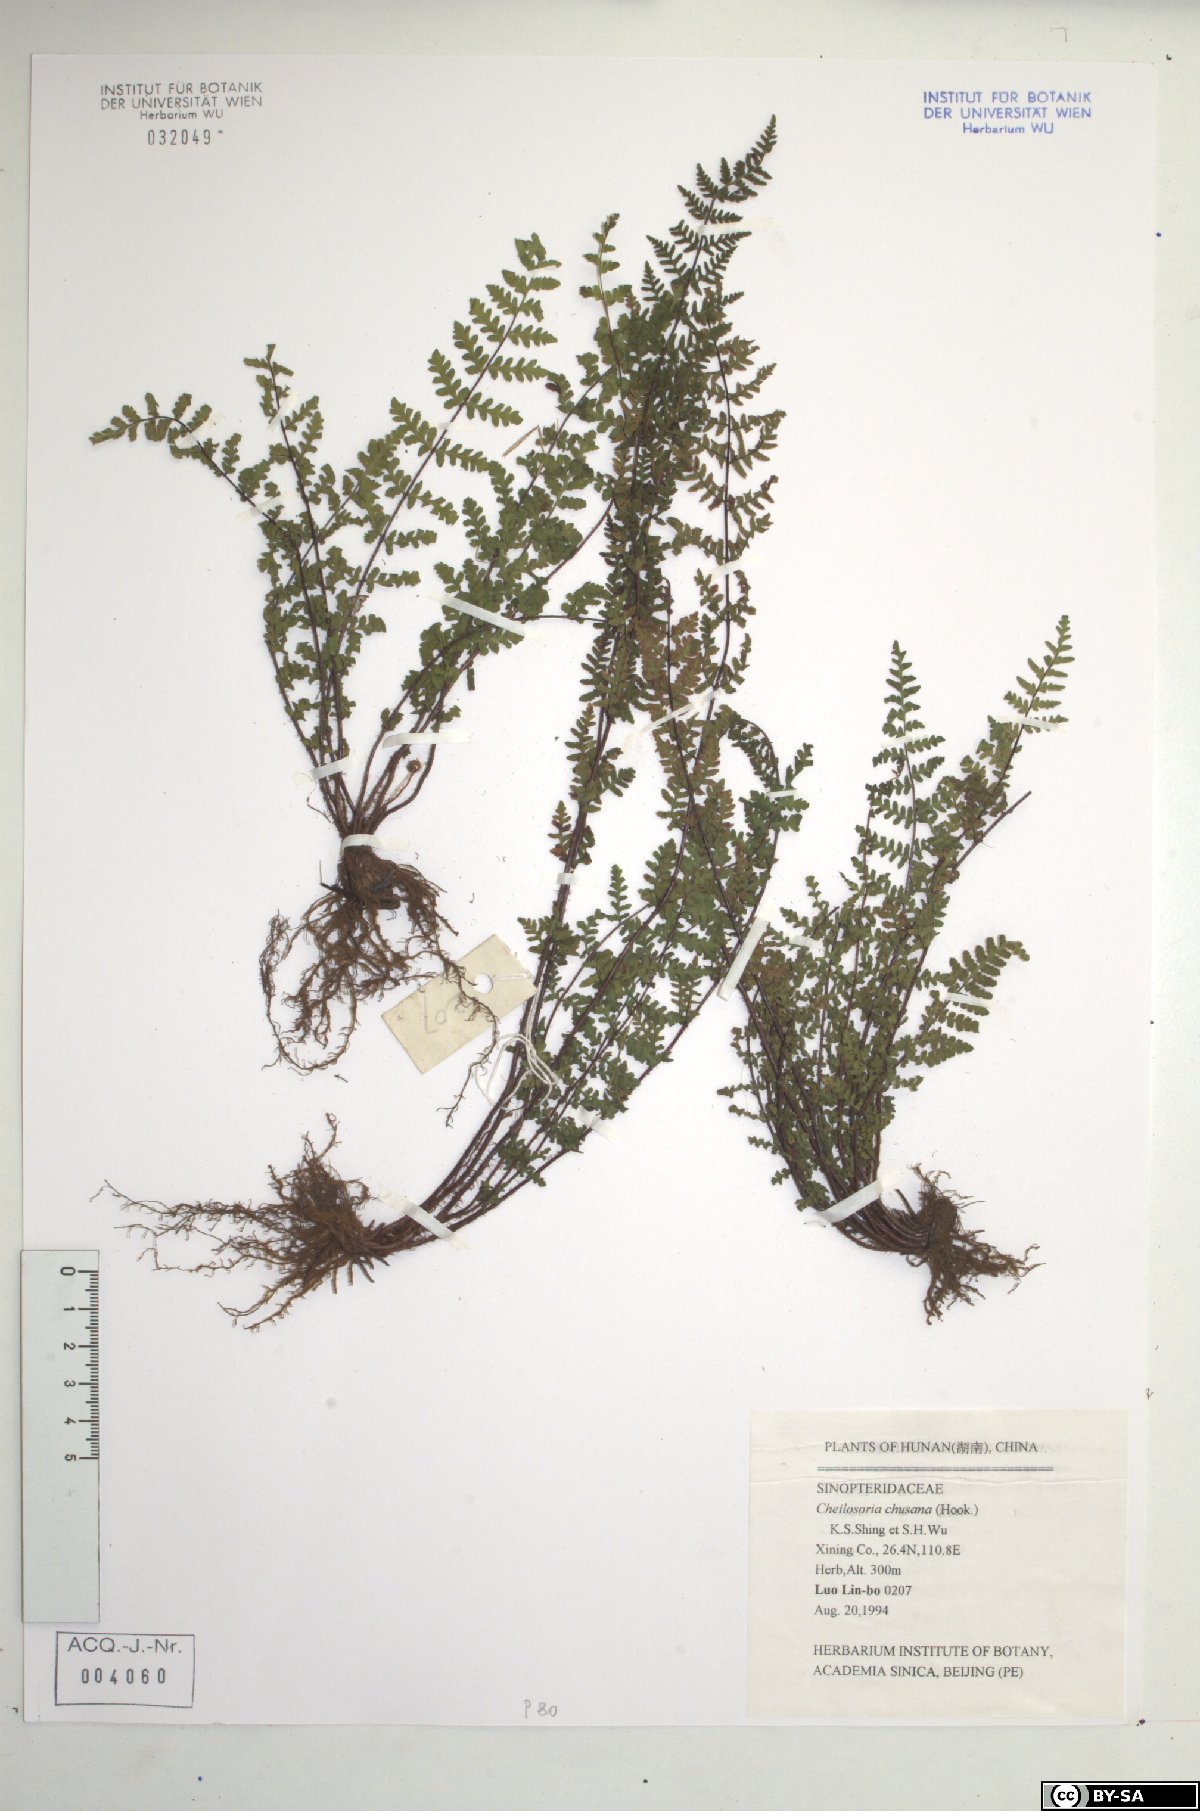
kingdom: Plantae
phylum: Tracheophyta
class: Polypodiopsida
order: Polypodiales
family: Pteridaceae
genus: Oeosporangium
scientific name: Oeosporangium chusanum
